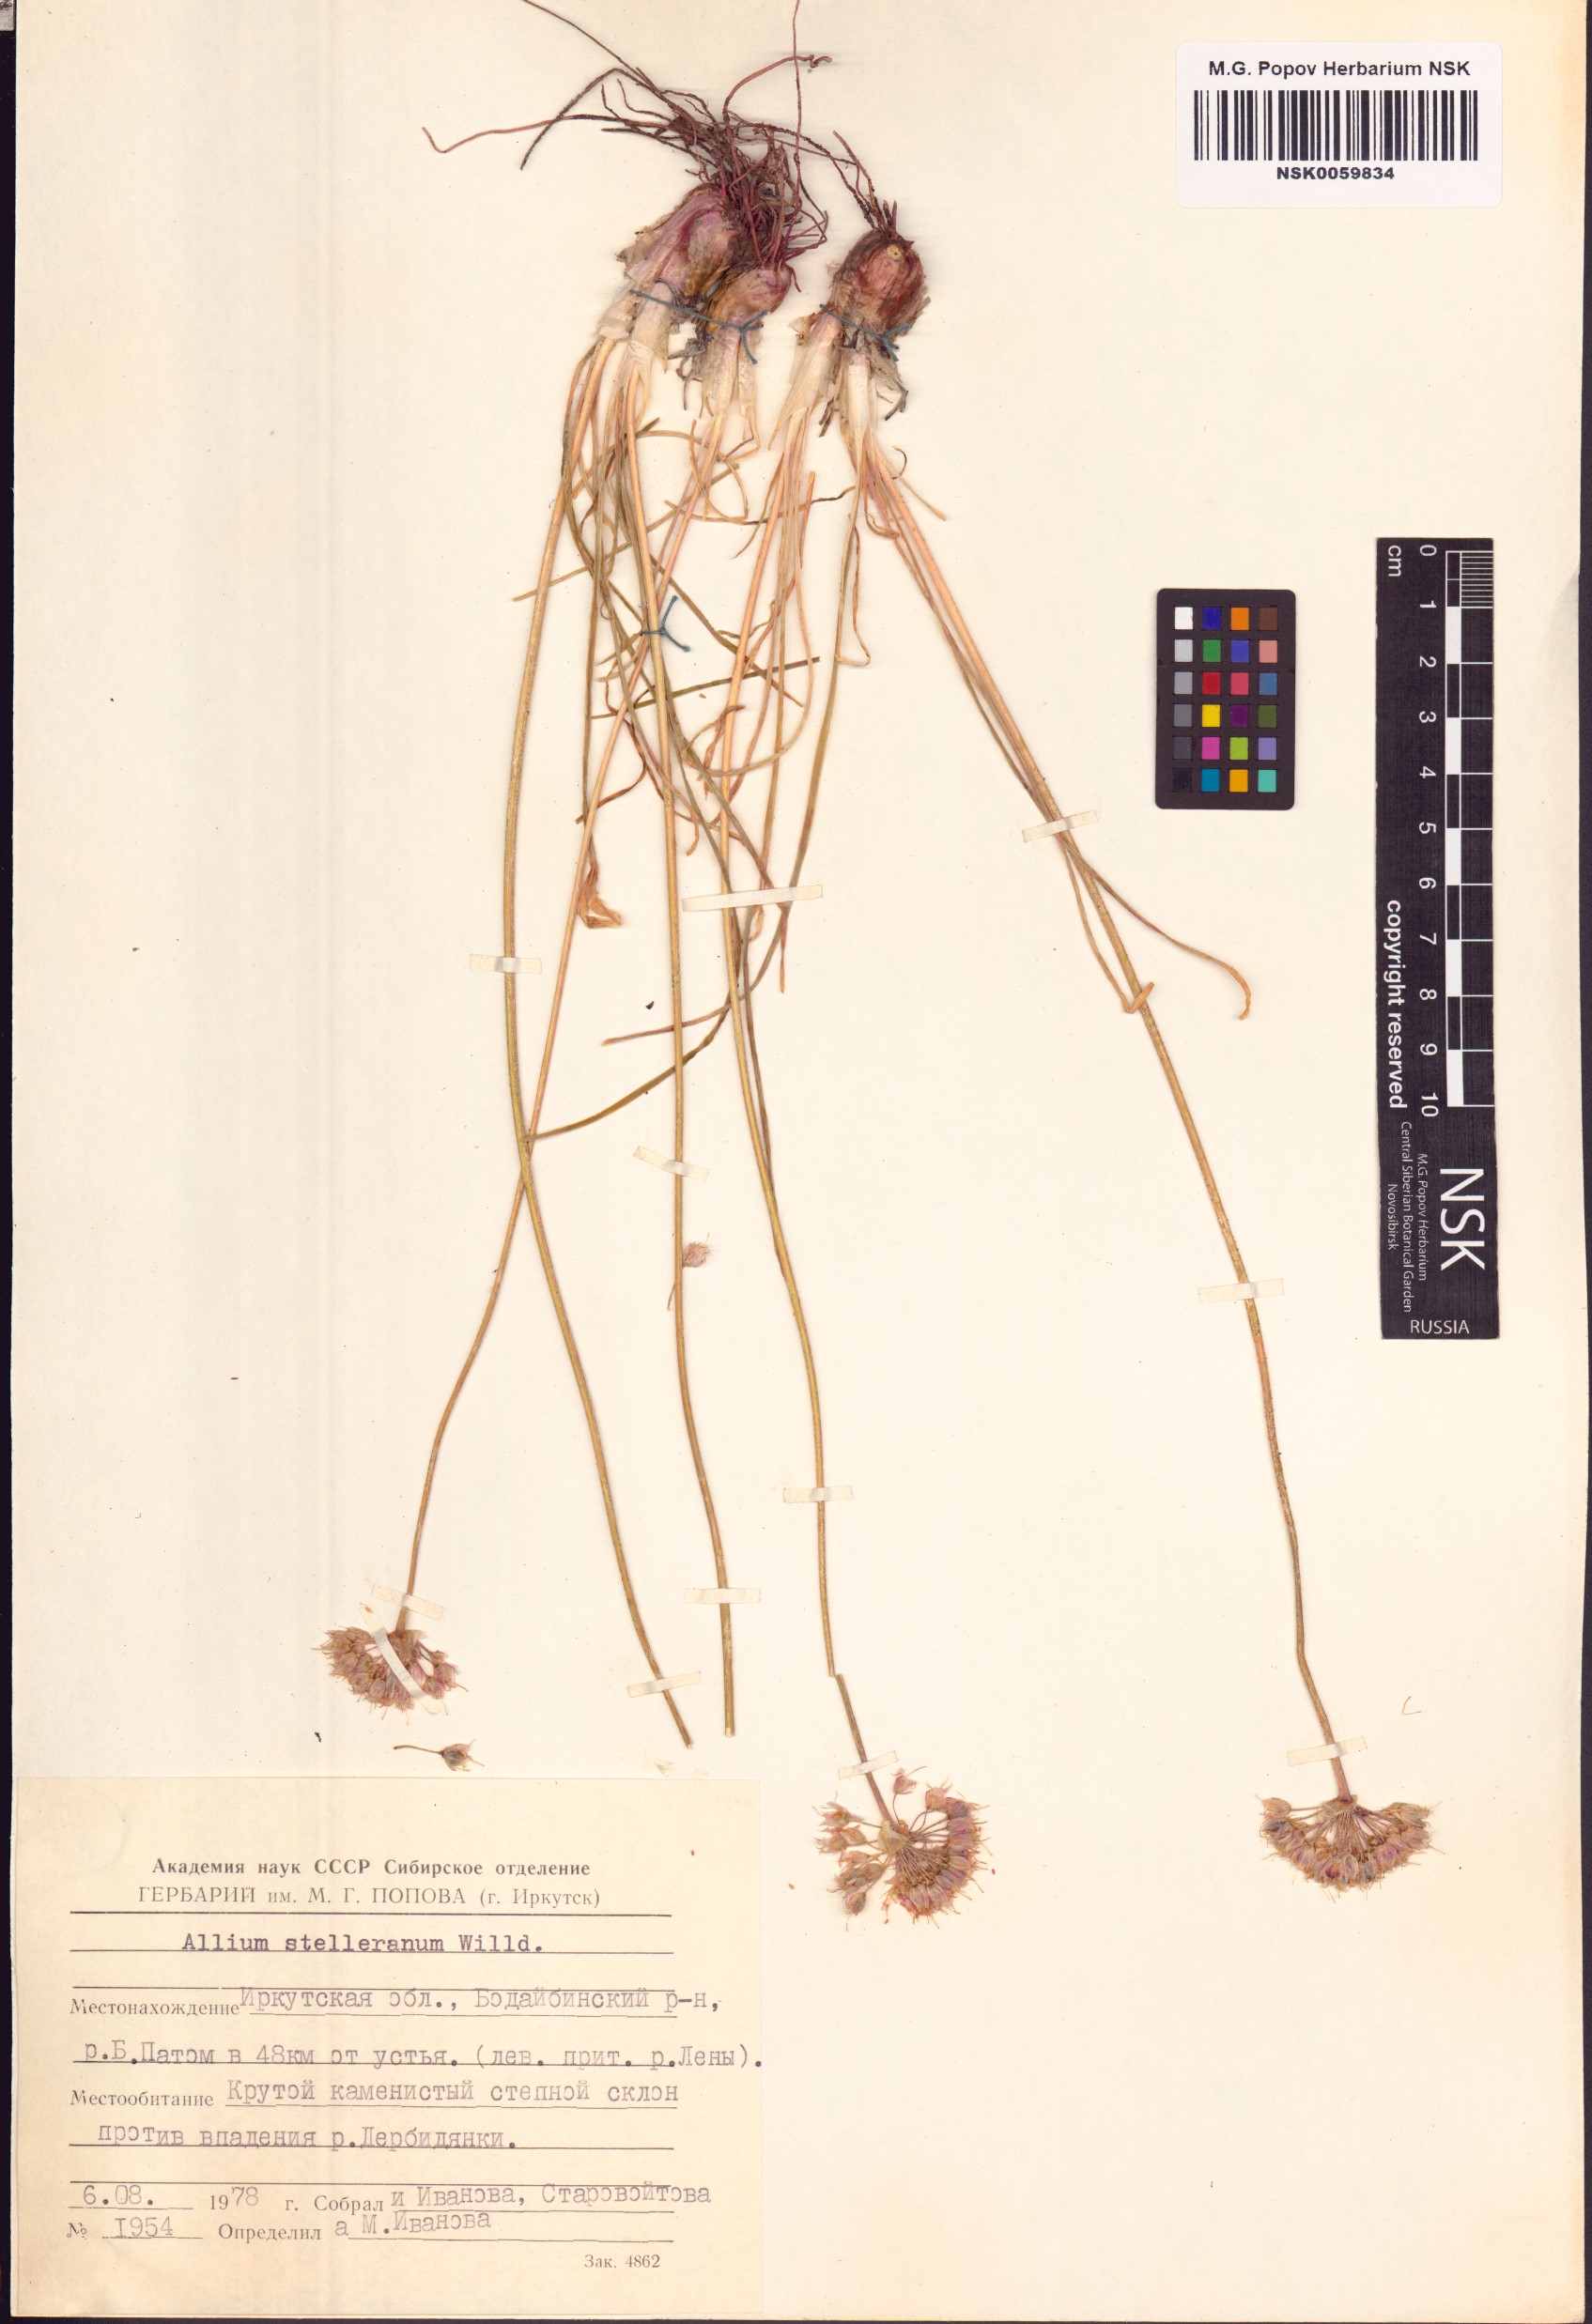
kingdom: Plantae
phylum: Tracheophyta
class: Liliopsida
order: Asparagales
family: Amaryllidaceae
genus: Allium
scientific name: Allium stellerianum
